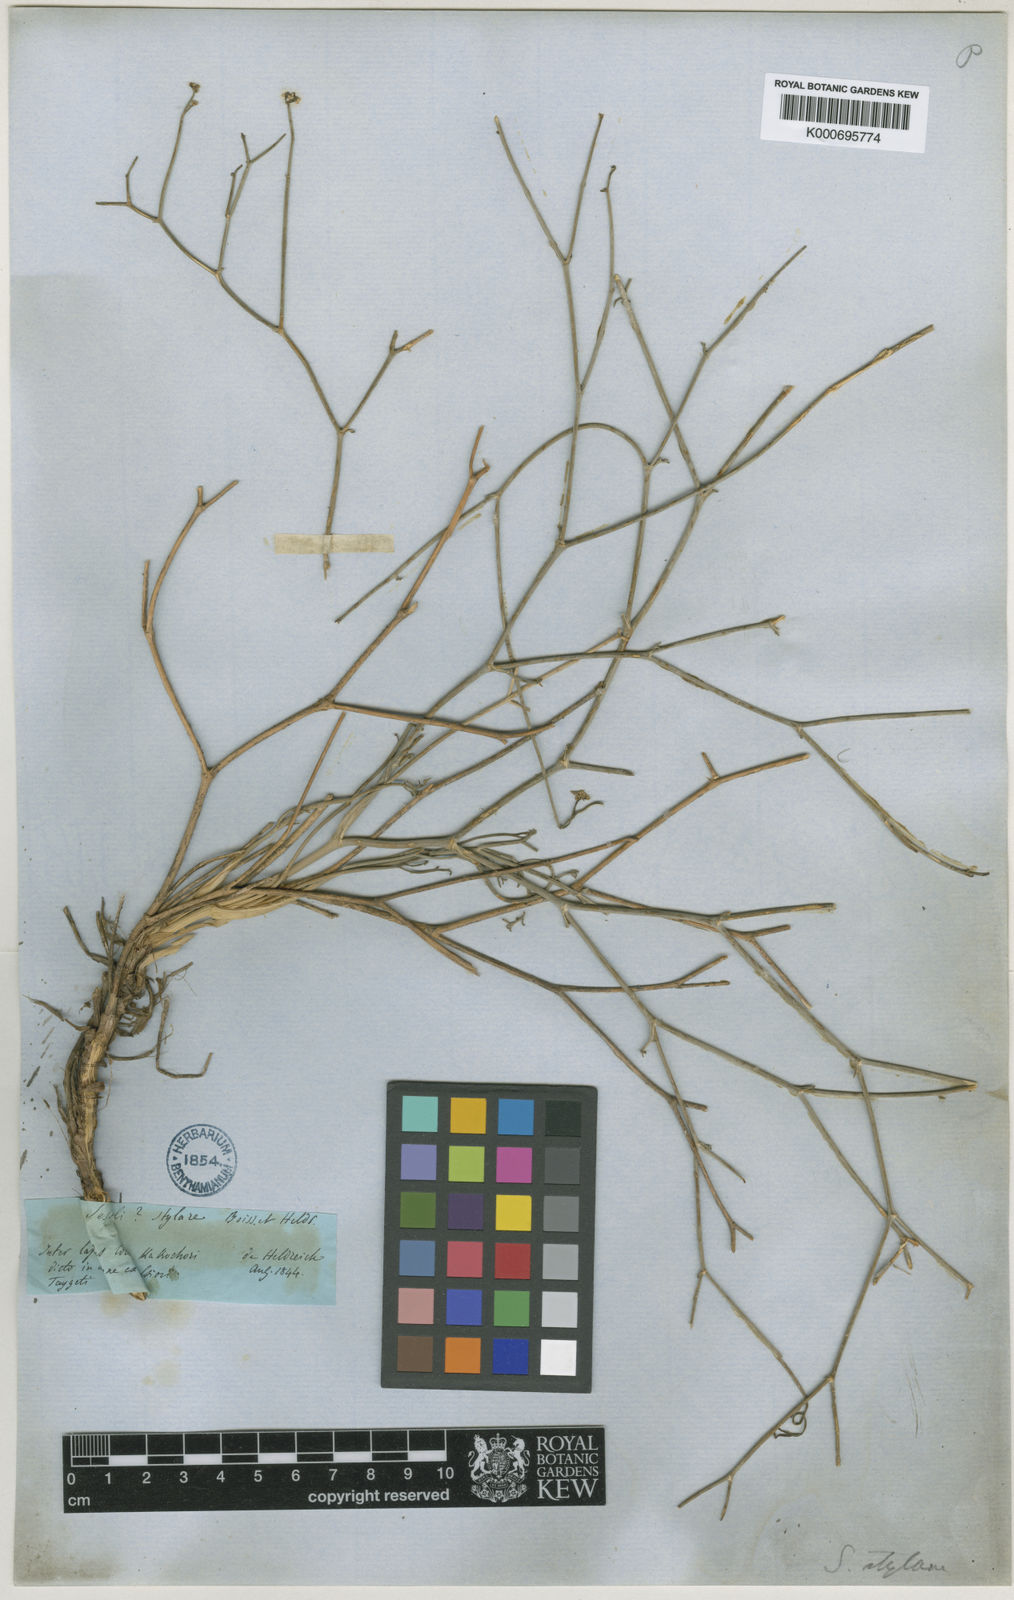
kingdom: Plantae
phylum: Tracheophyta
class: Magnoliopsida
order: Apiales
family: Apiaceae
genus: Cyathoselinum
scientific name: Cyathoselinum tomentosum
